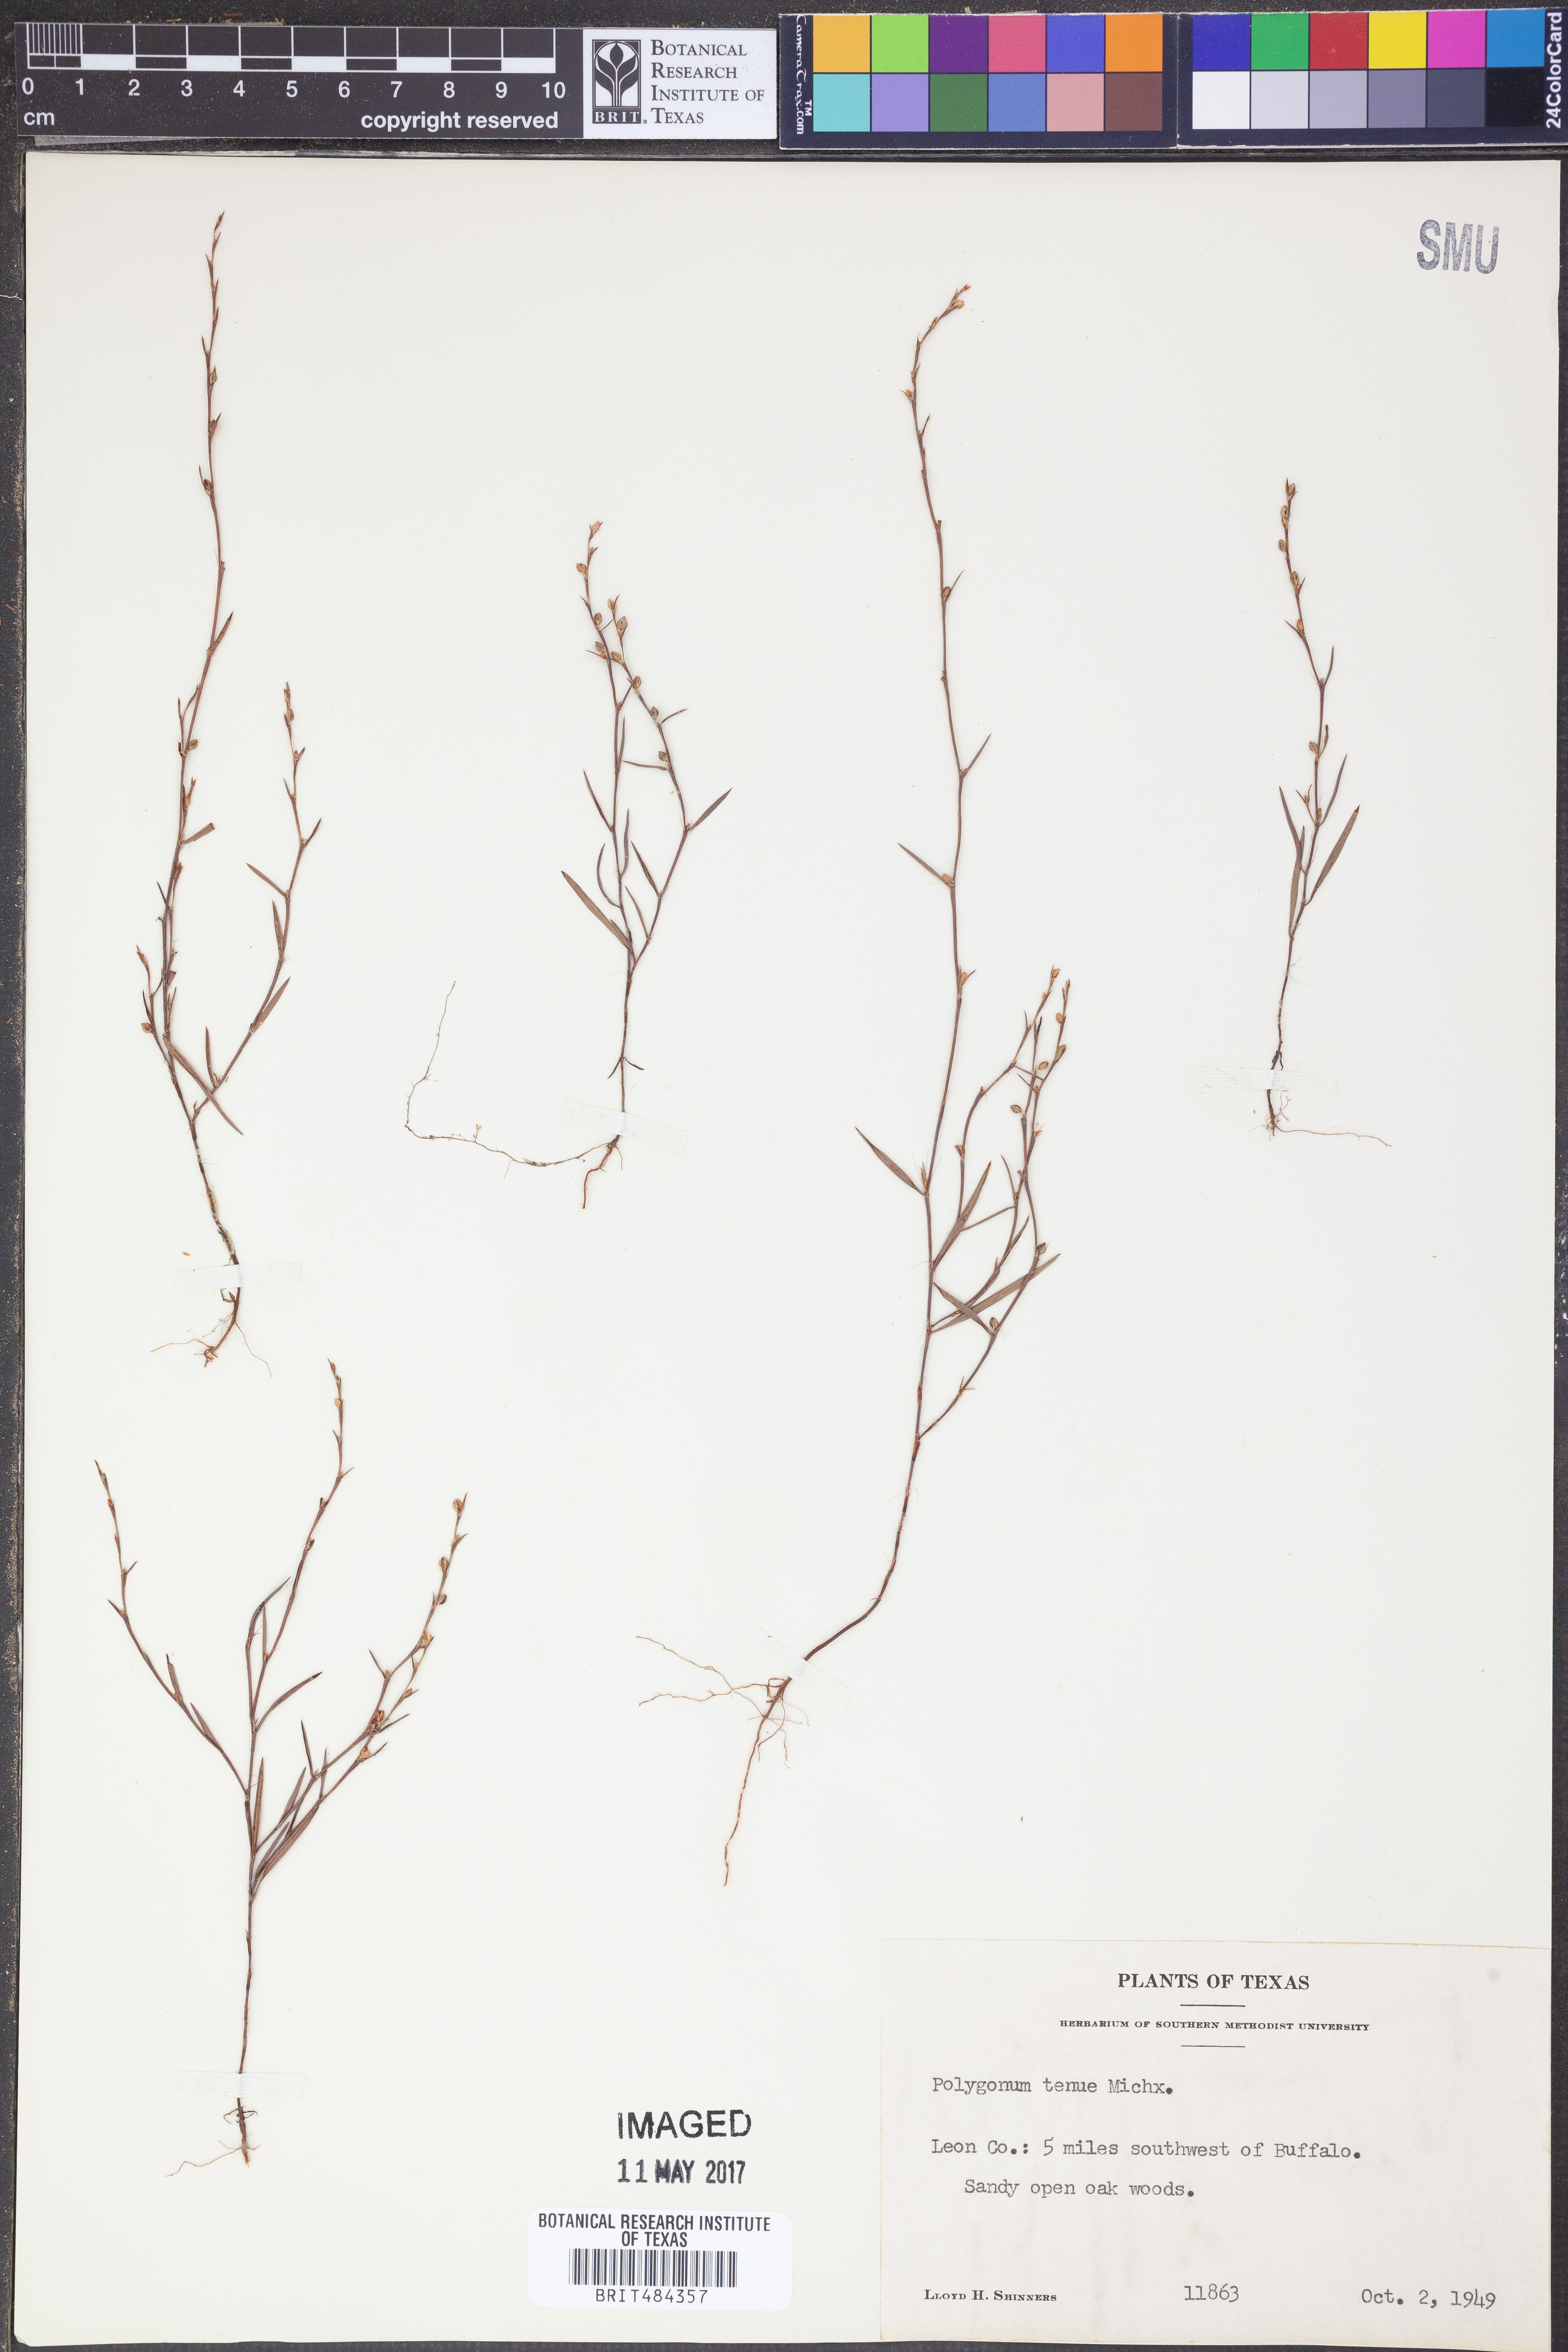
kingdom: Plantae
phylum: Tracheophyta
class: Magnoliopsida
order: Caryophyllales
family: Polygonaceae
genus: Polygonum
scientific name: Polygonum tenue
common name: Pleat-leaved knotweed
